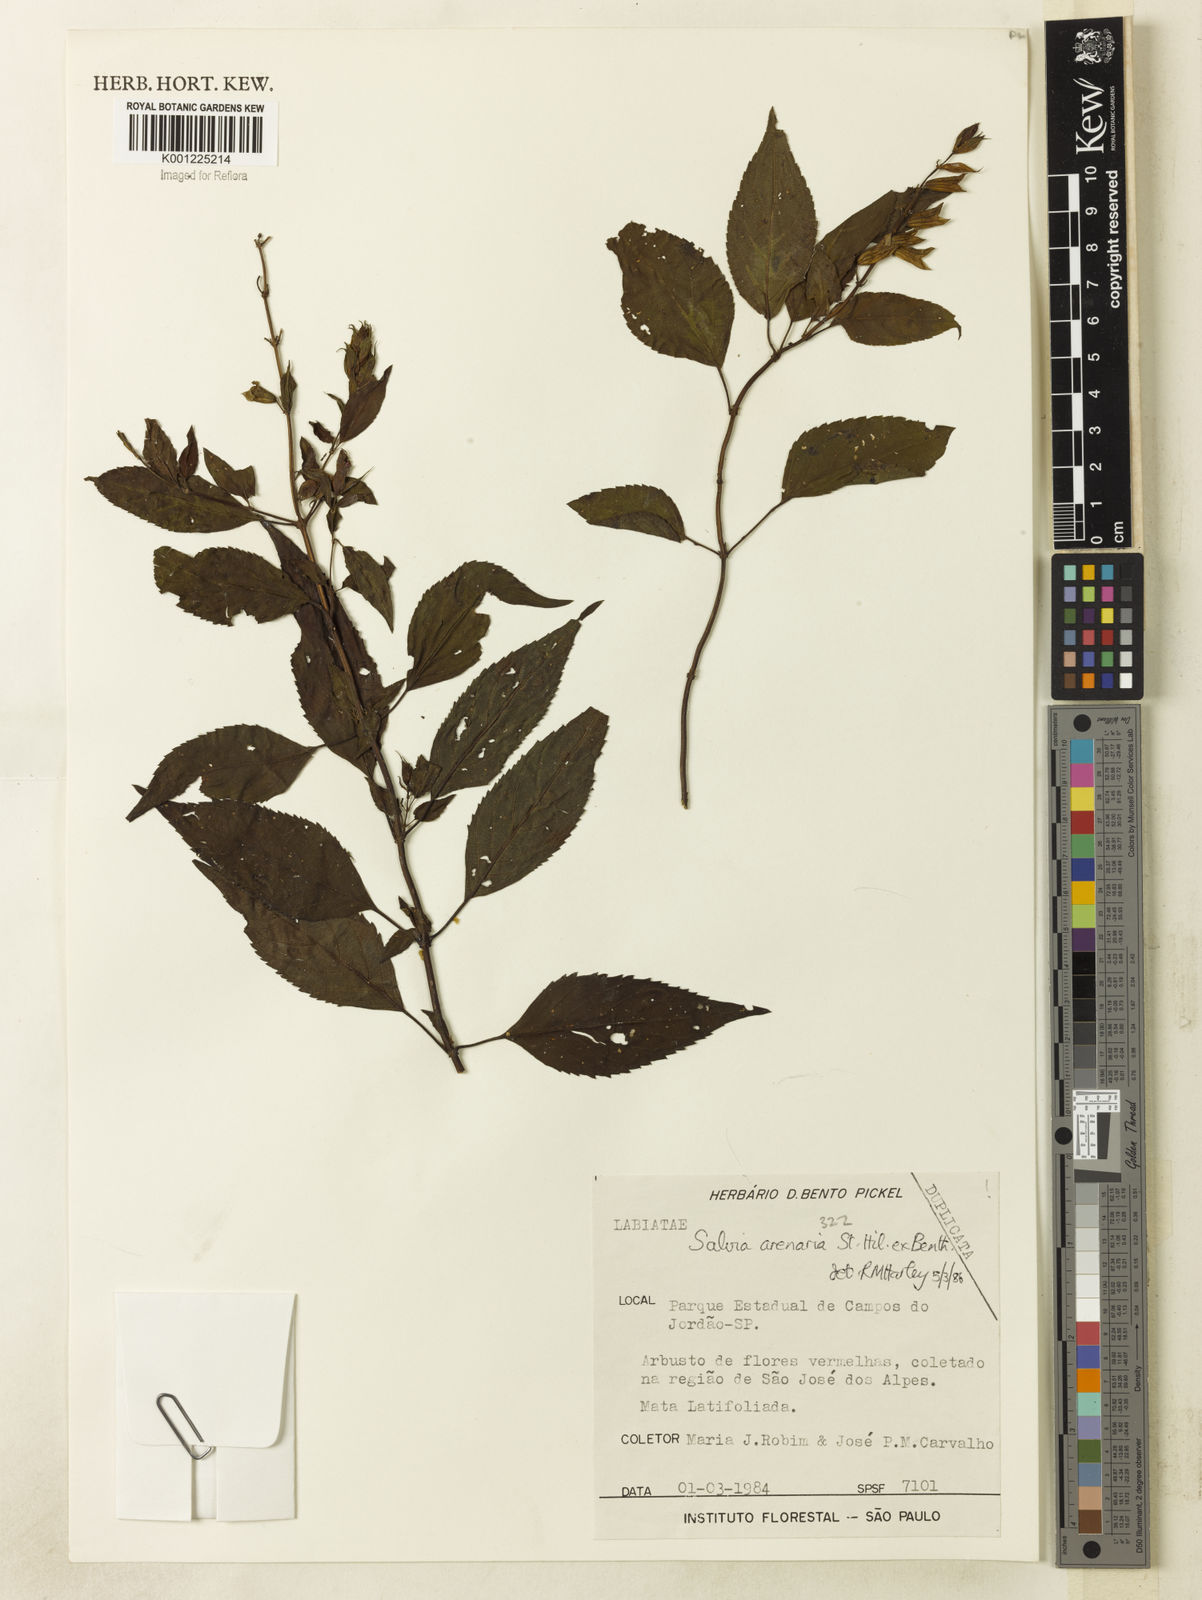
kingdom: Plantae
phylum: Tracheophyta
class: Magnoliopsida
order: Lamiales
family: Lamiaceae
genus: Salvia
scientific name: Salvia arenaria
